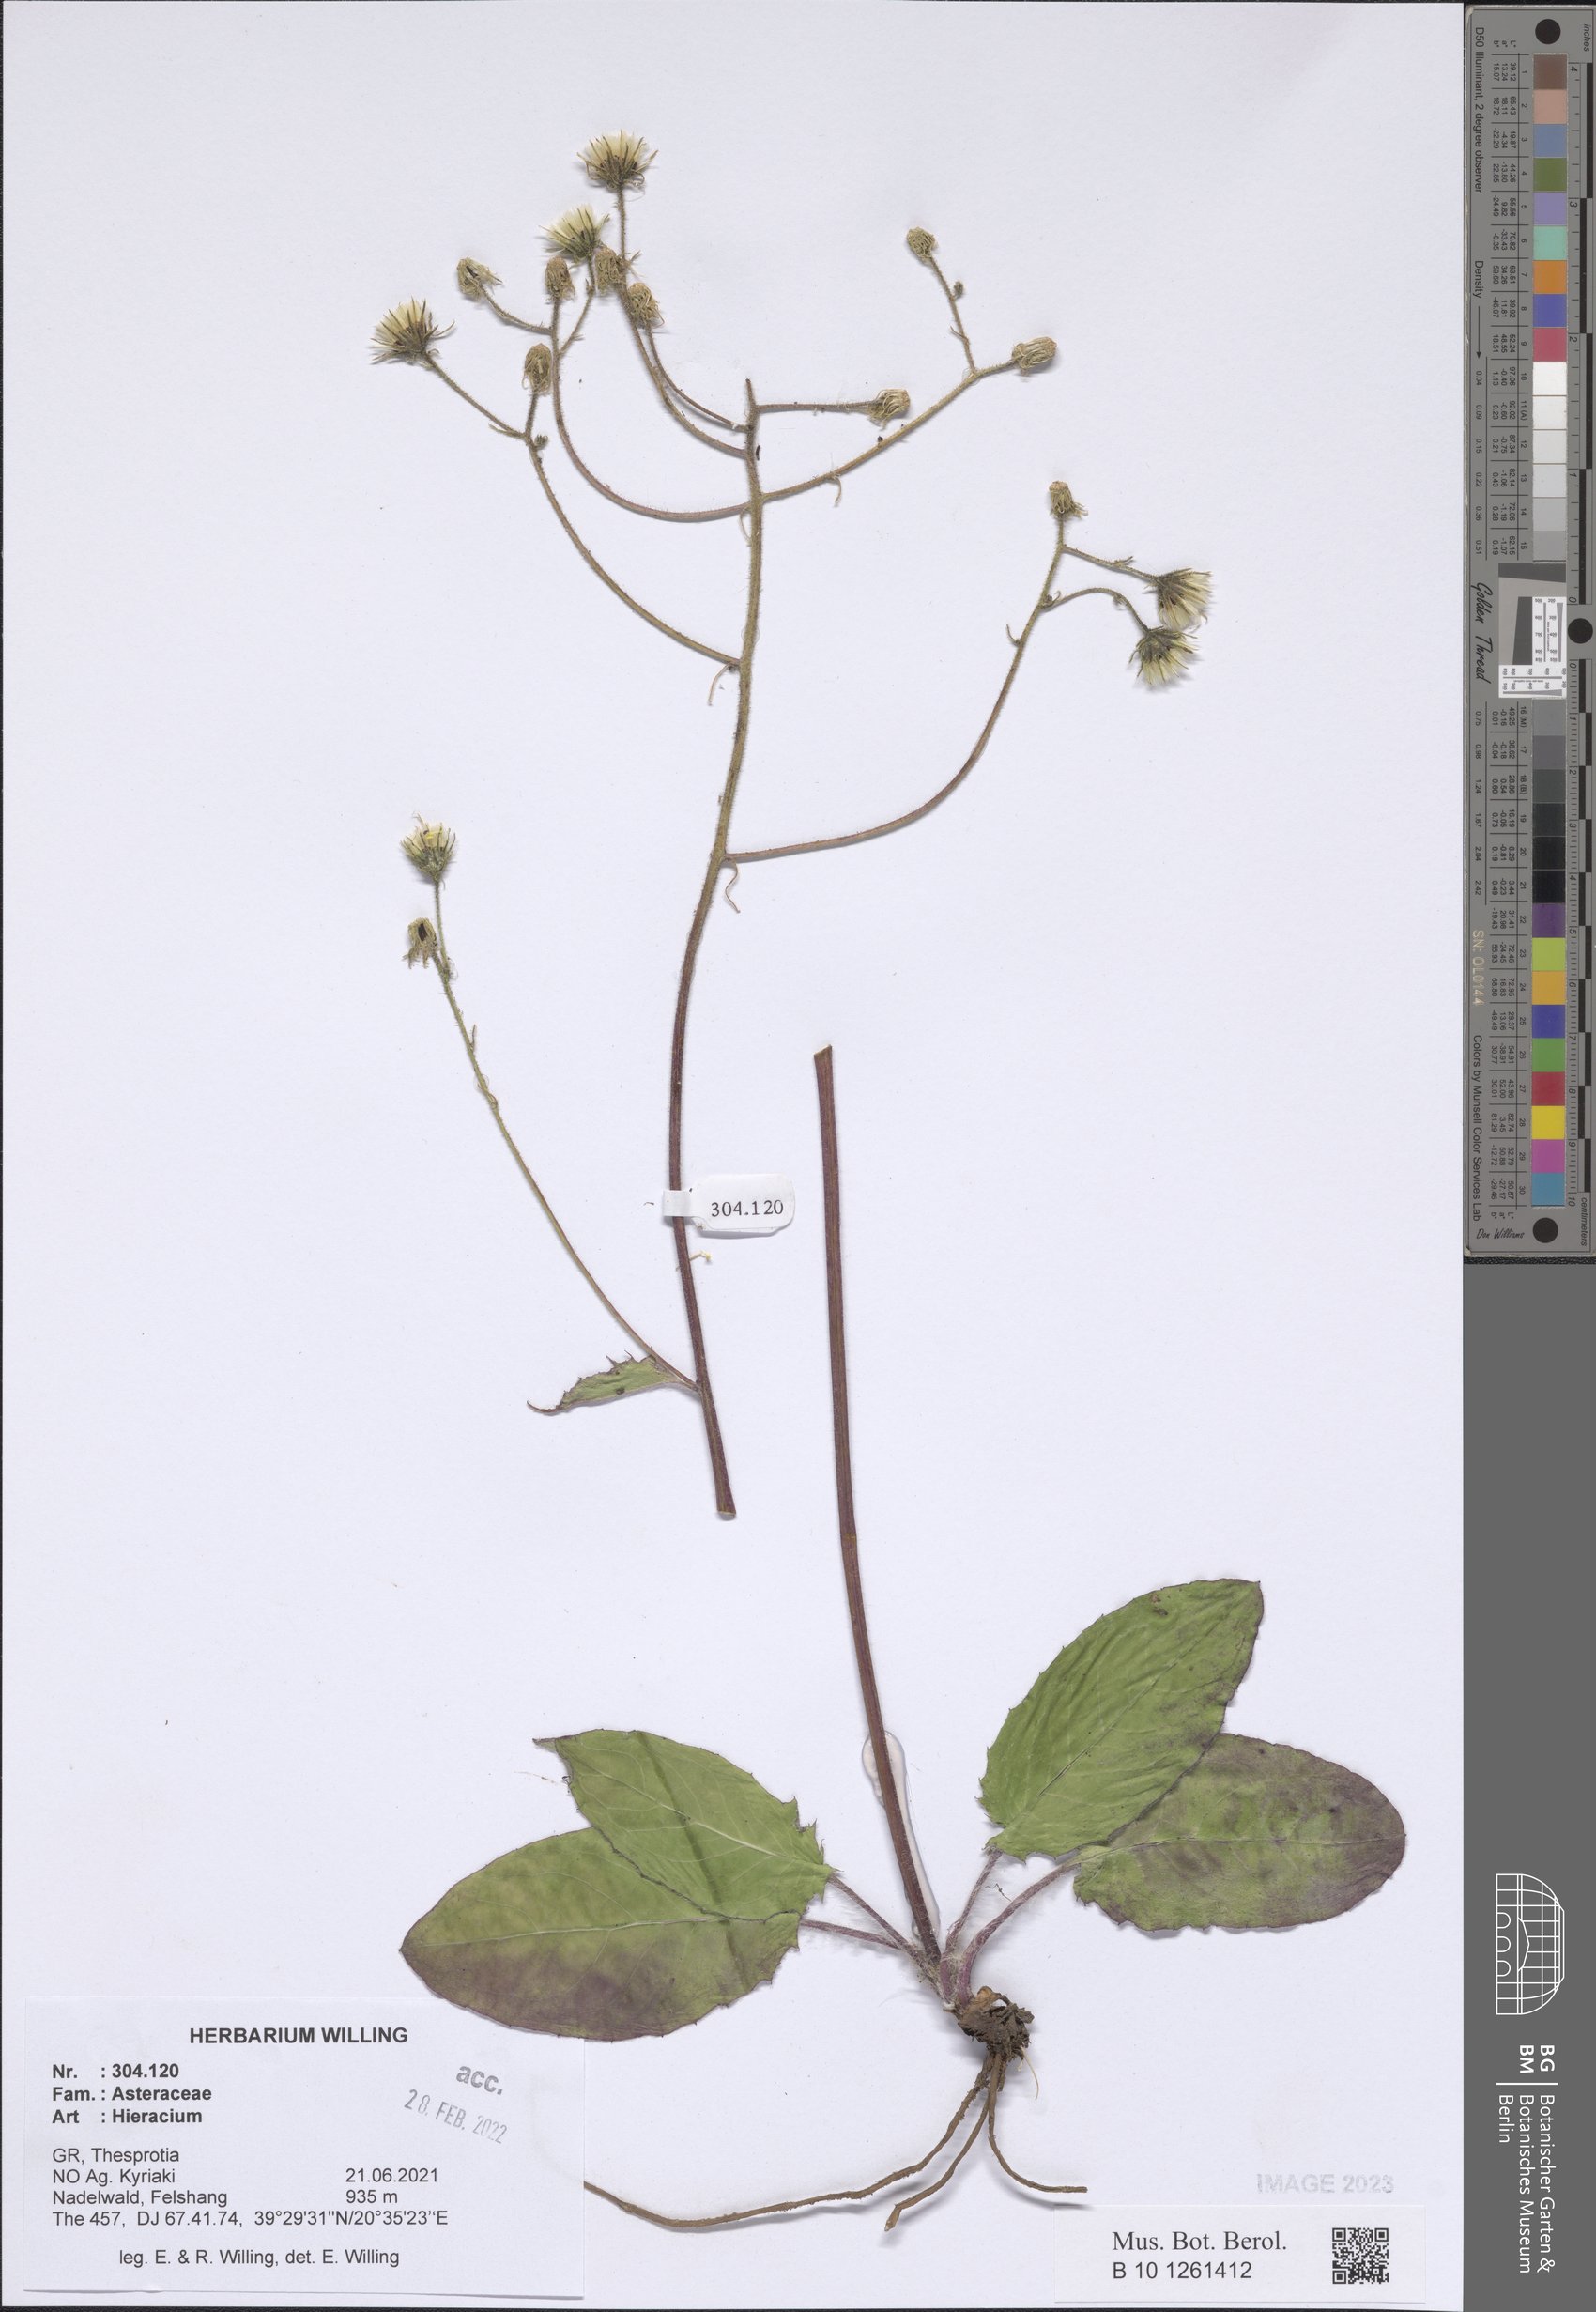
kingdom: Plantae
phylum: Tracheophyta
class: Magnoliopsida
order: Asterales
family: Asteraceae
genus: Hieracium
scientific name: Hieracium
